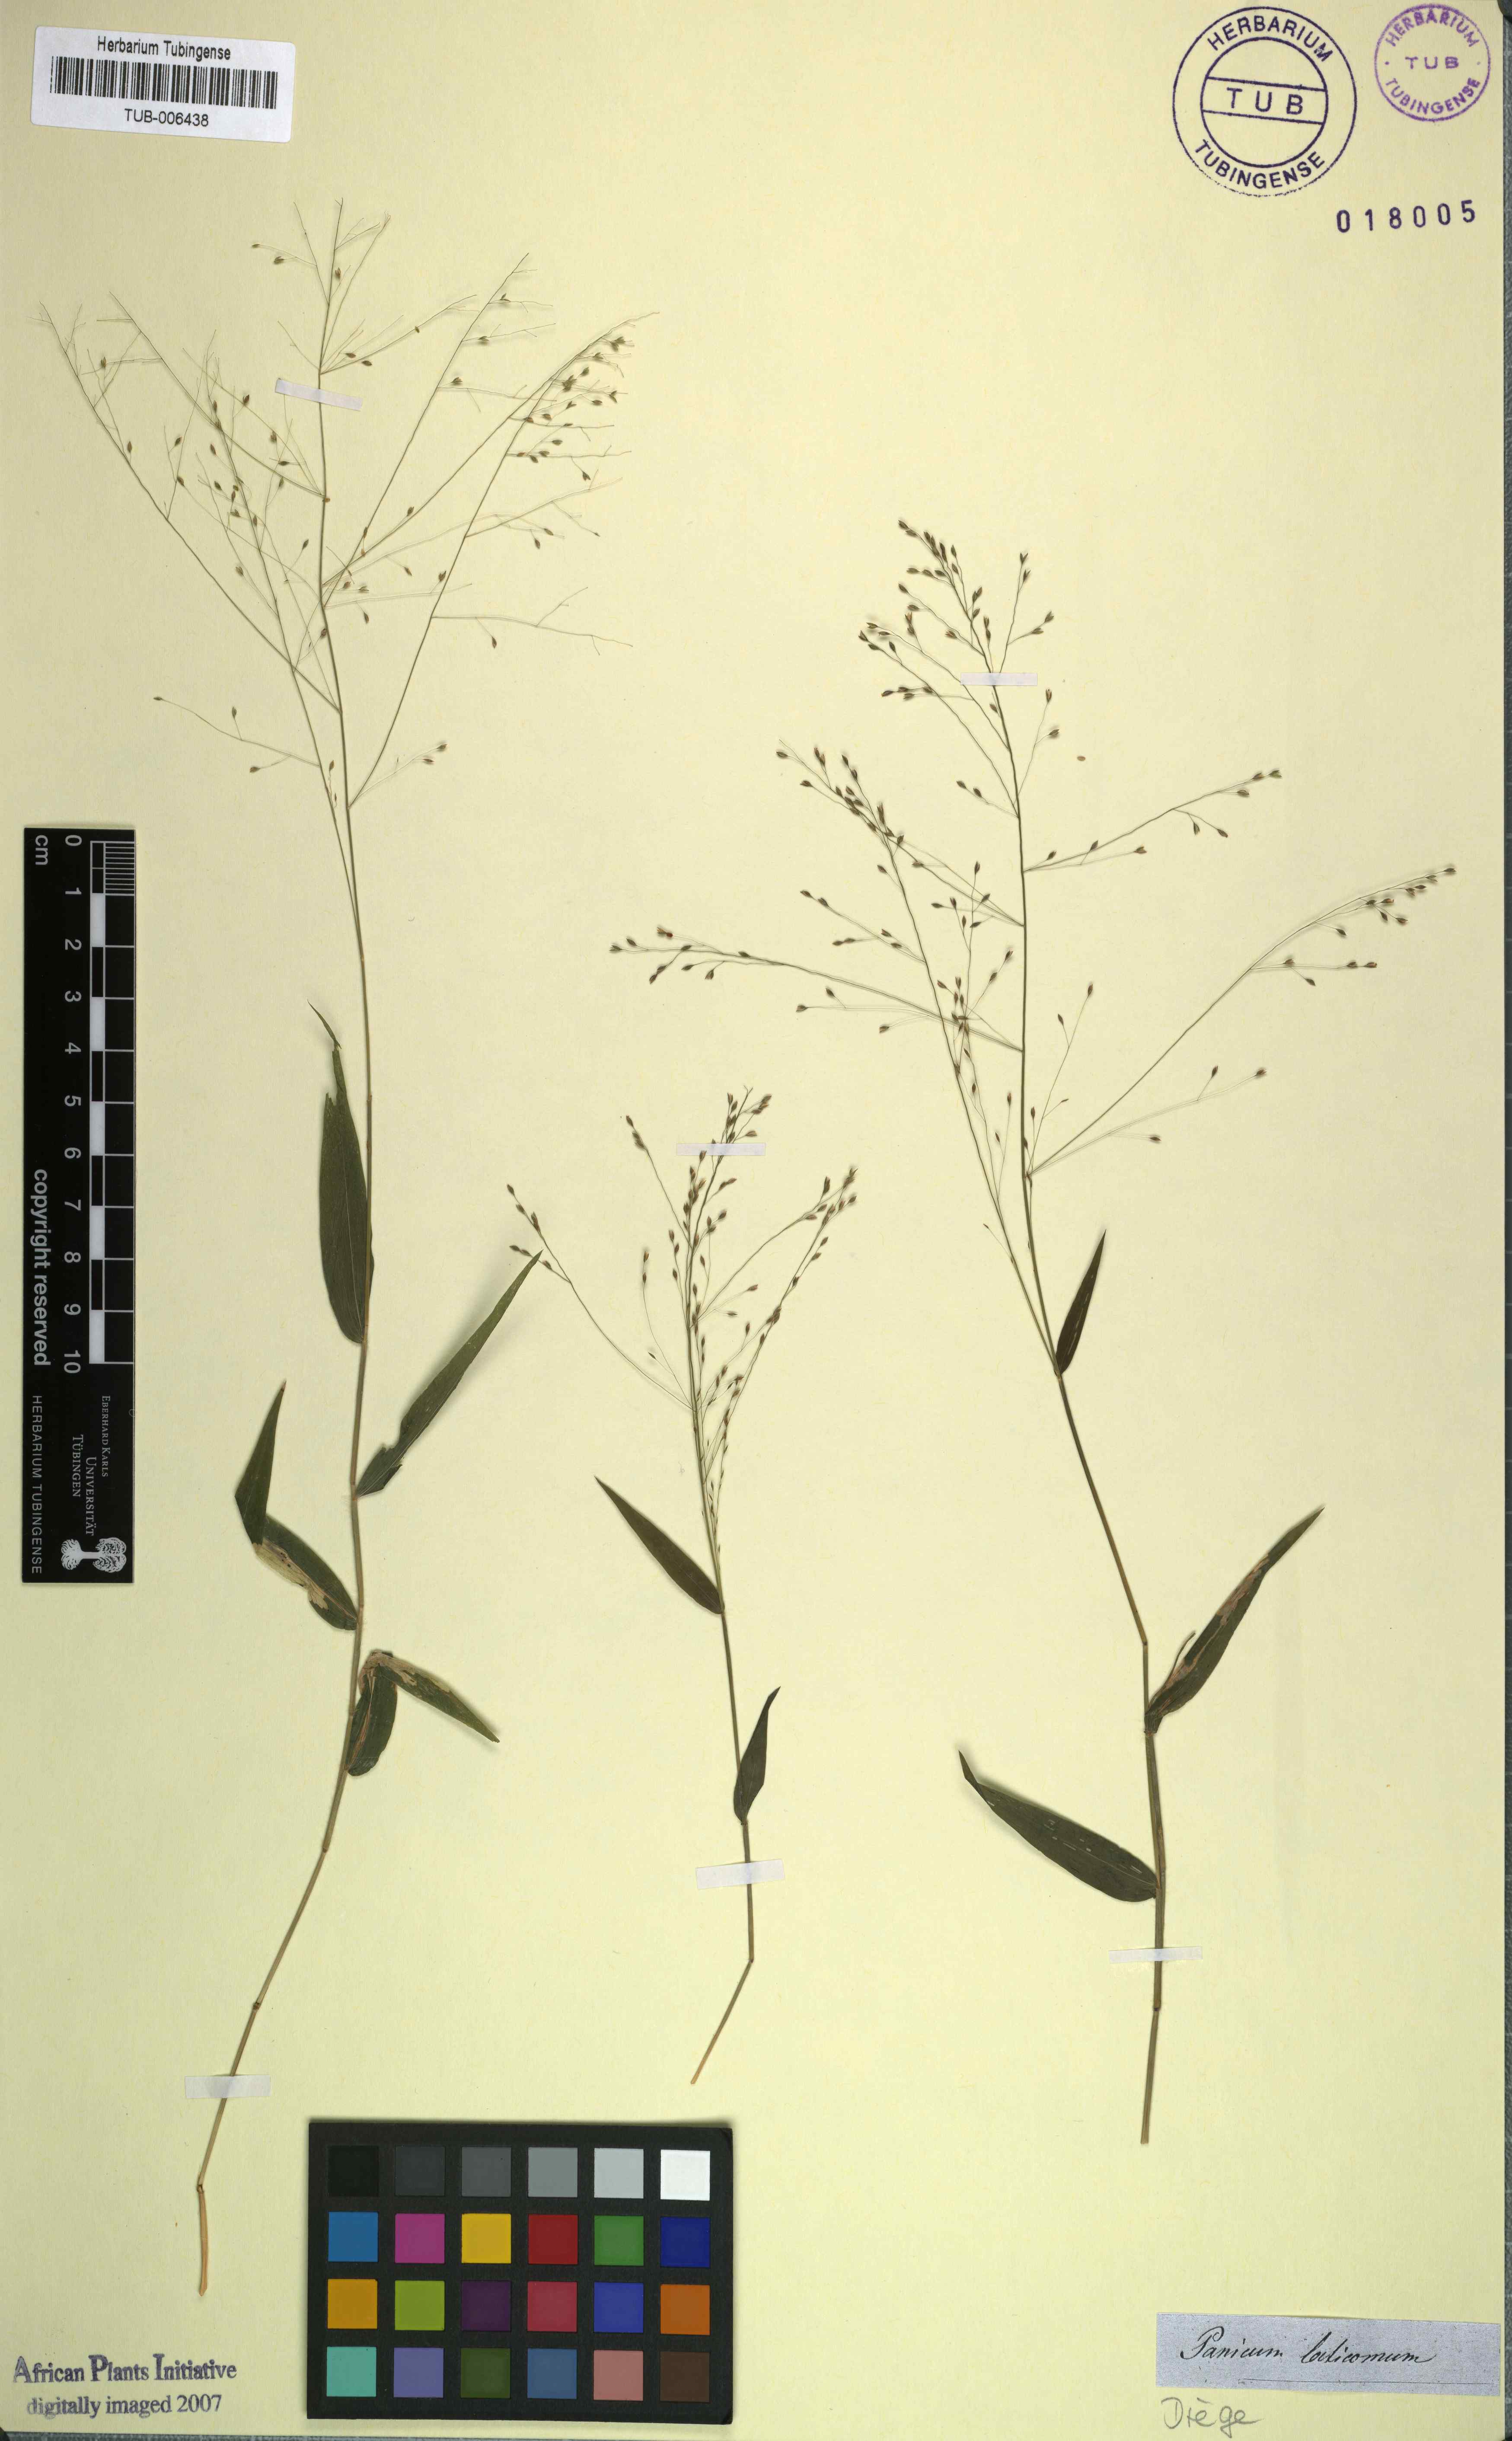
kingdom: Plantae
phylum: Tracheophyta
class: Liliopsida
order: Poales
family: Poaceae
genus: Panicum
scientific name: Panicum laticomum
